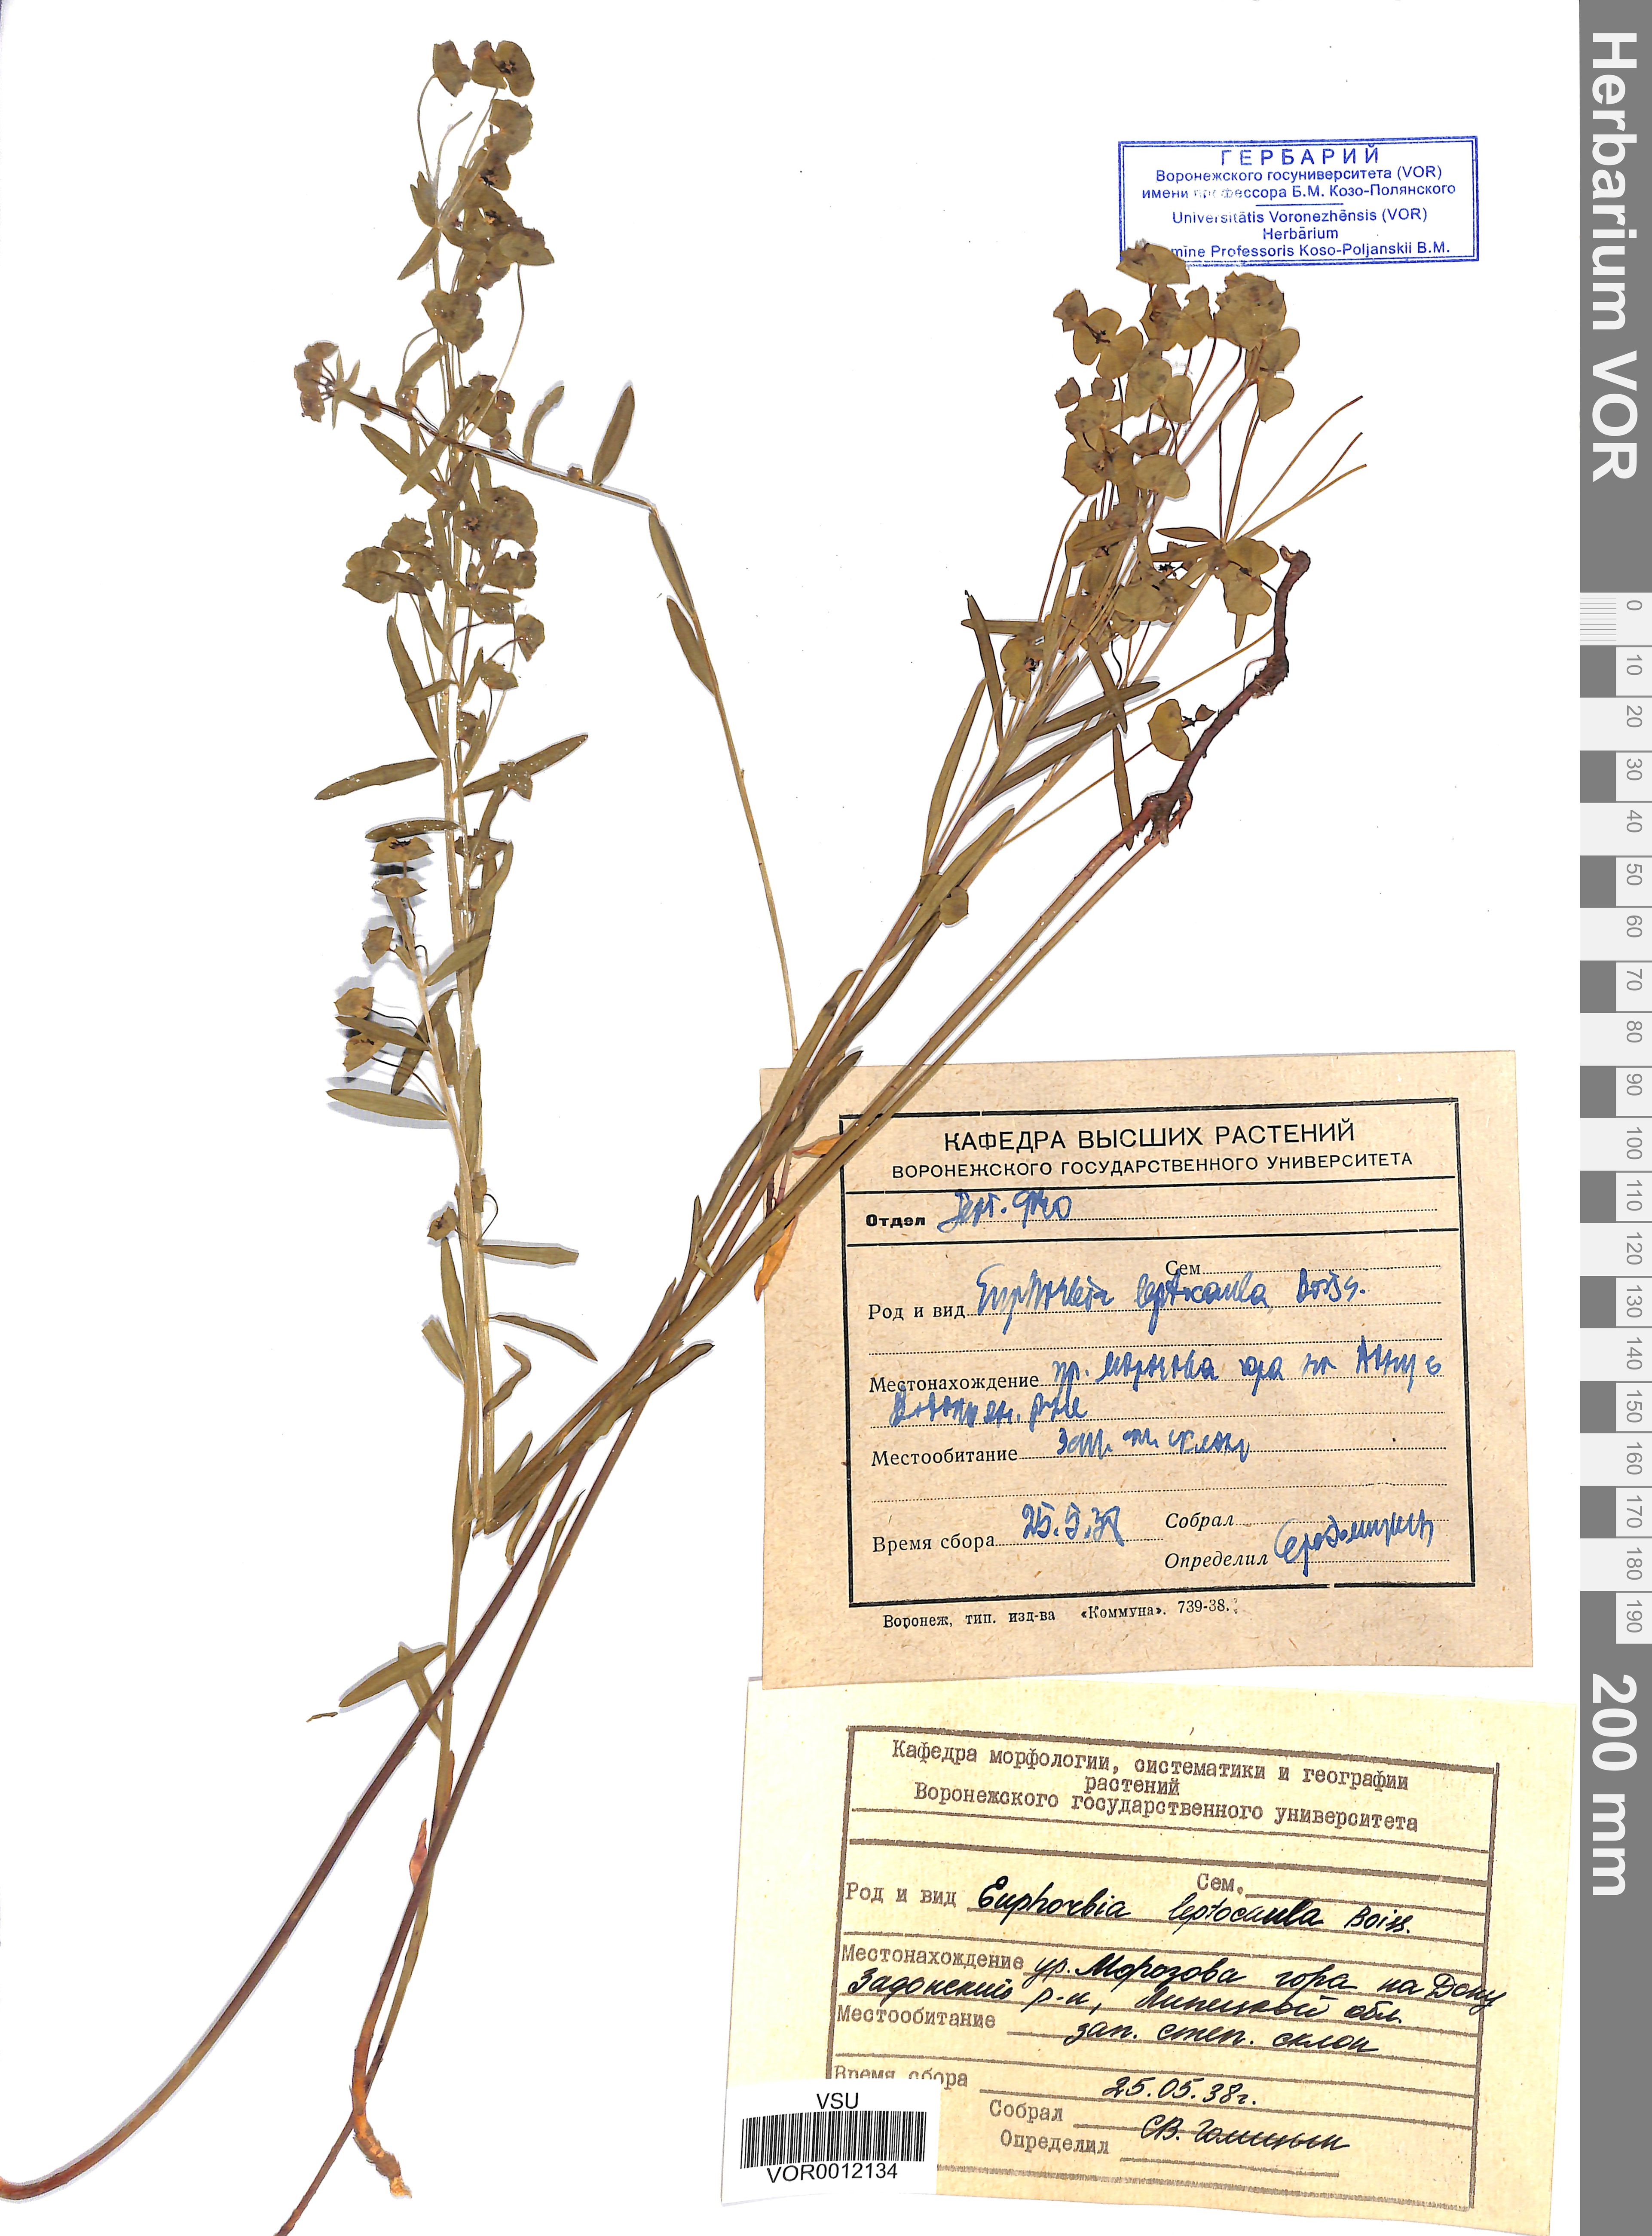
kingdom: Plantae
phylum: Tracheophyta
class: Magnoliopsida
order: Malpighiales
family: Euphorbiaceae
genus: Euphorbia
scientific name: Euphorbia leptocaula
